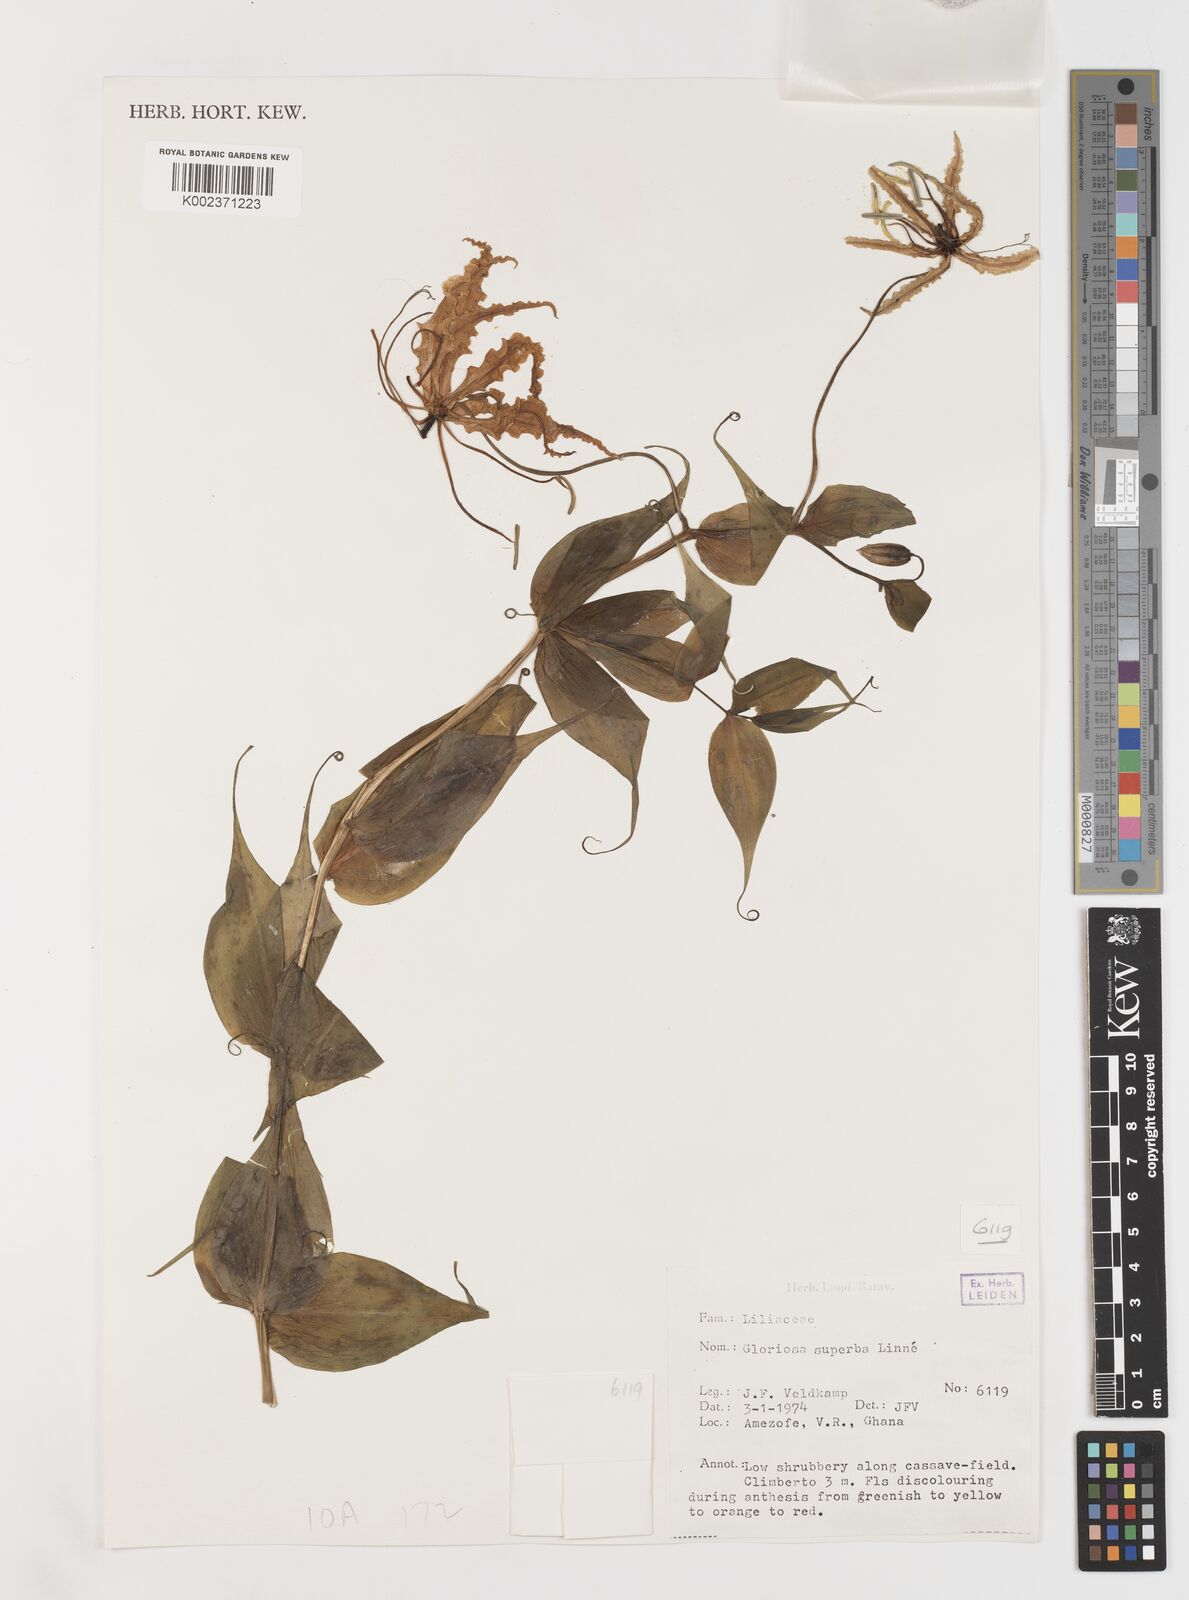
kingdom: Plantae
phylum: Tracheophyta
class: Liliopsida
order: Liliales
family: Colchicaceae
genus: Gloriosa
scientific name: Gloriosa superba
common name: Flame lily
